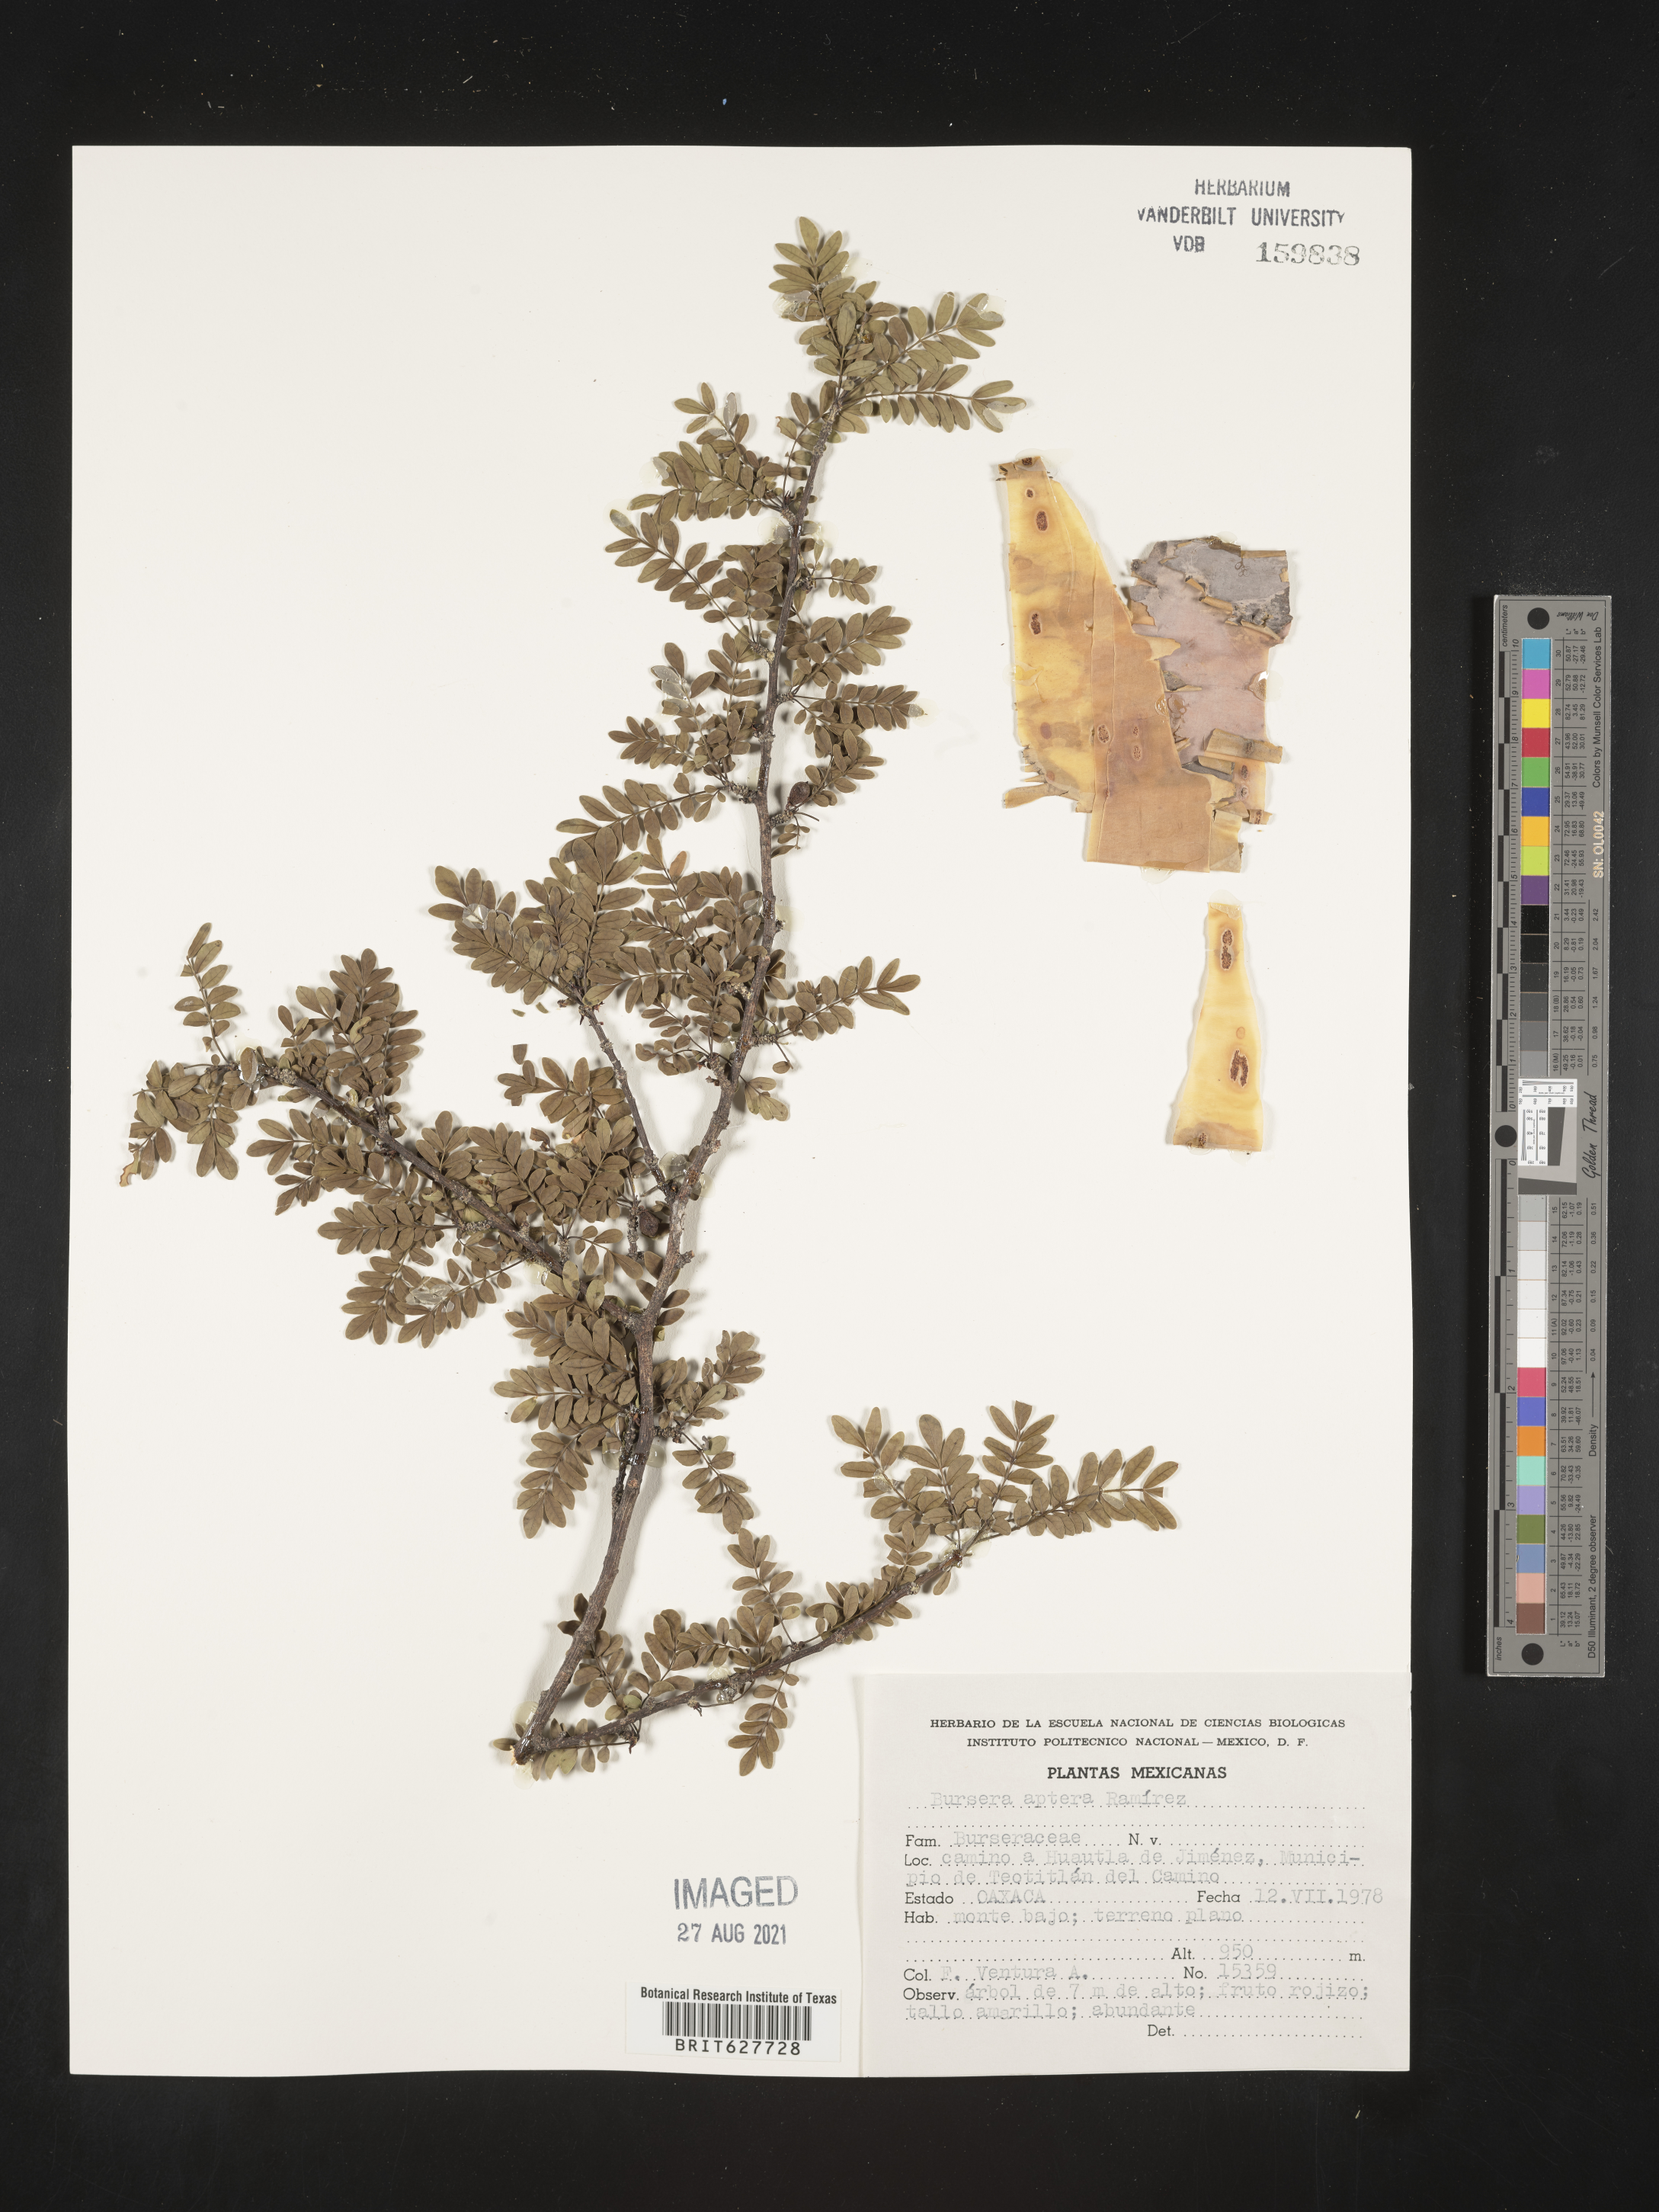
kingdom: Plantae
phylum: Tracheophyta
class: Magnoliopsida
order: Sapindales
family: Burseraceae
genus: Bursera
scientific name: Bursera
